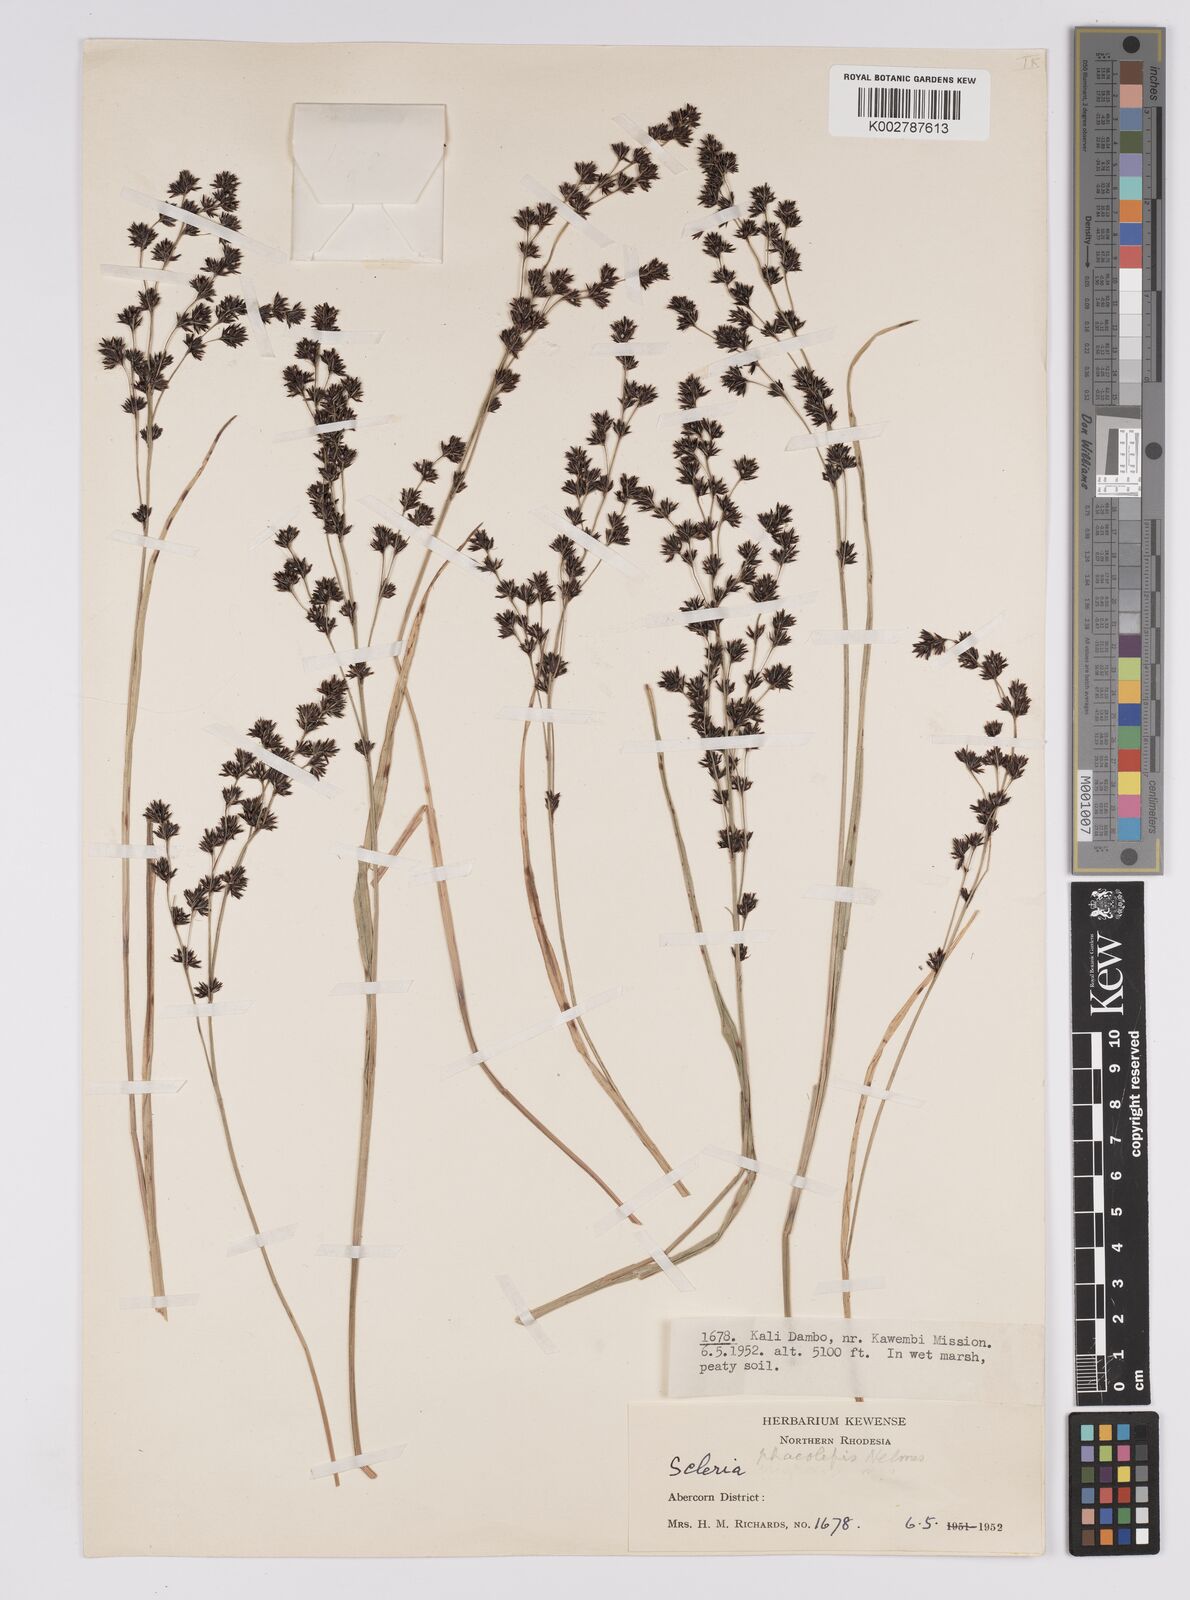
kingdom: Plantae
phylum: Tracheophyta
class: Liliopsida
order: Poales
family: Cyperaceae
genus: Scleria
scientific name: Scleria glabra
